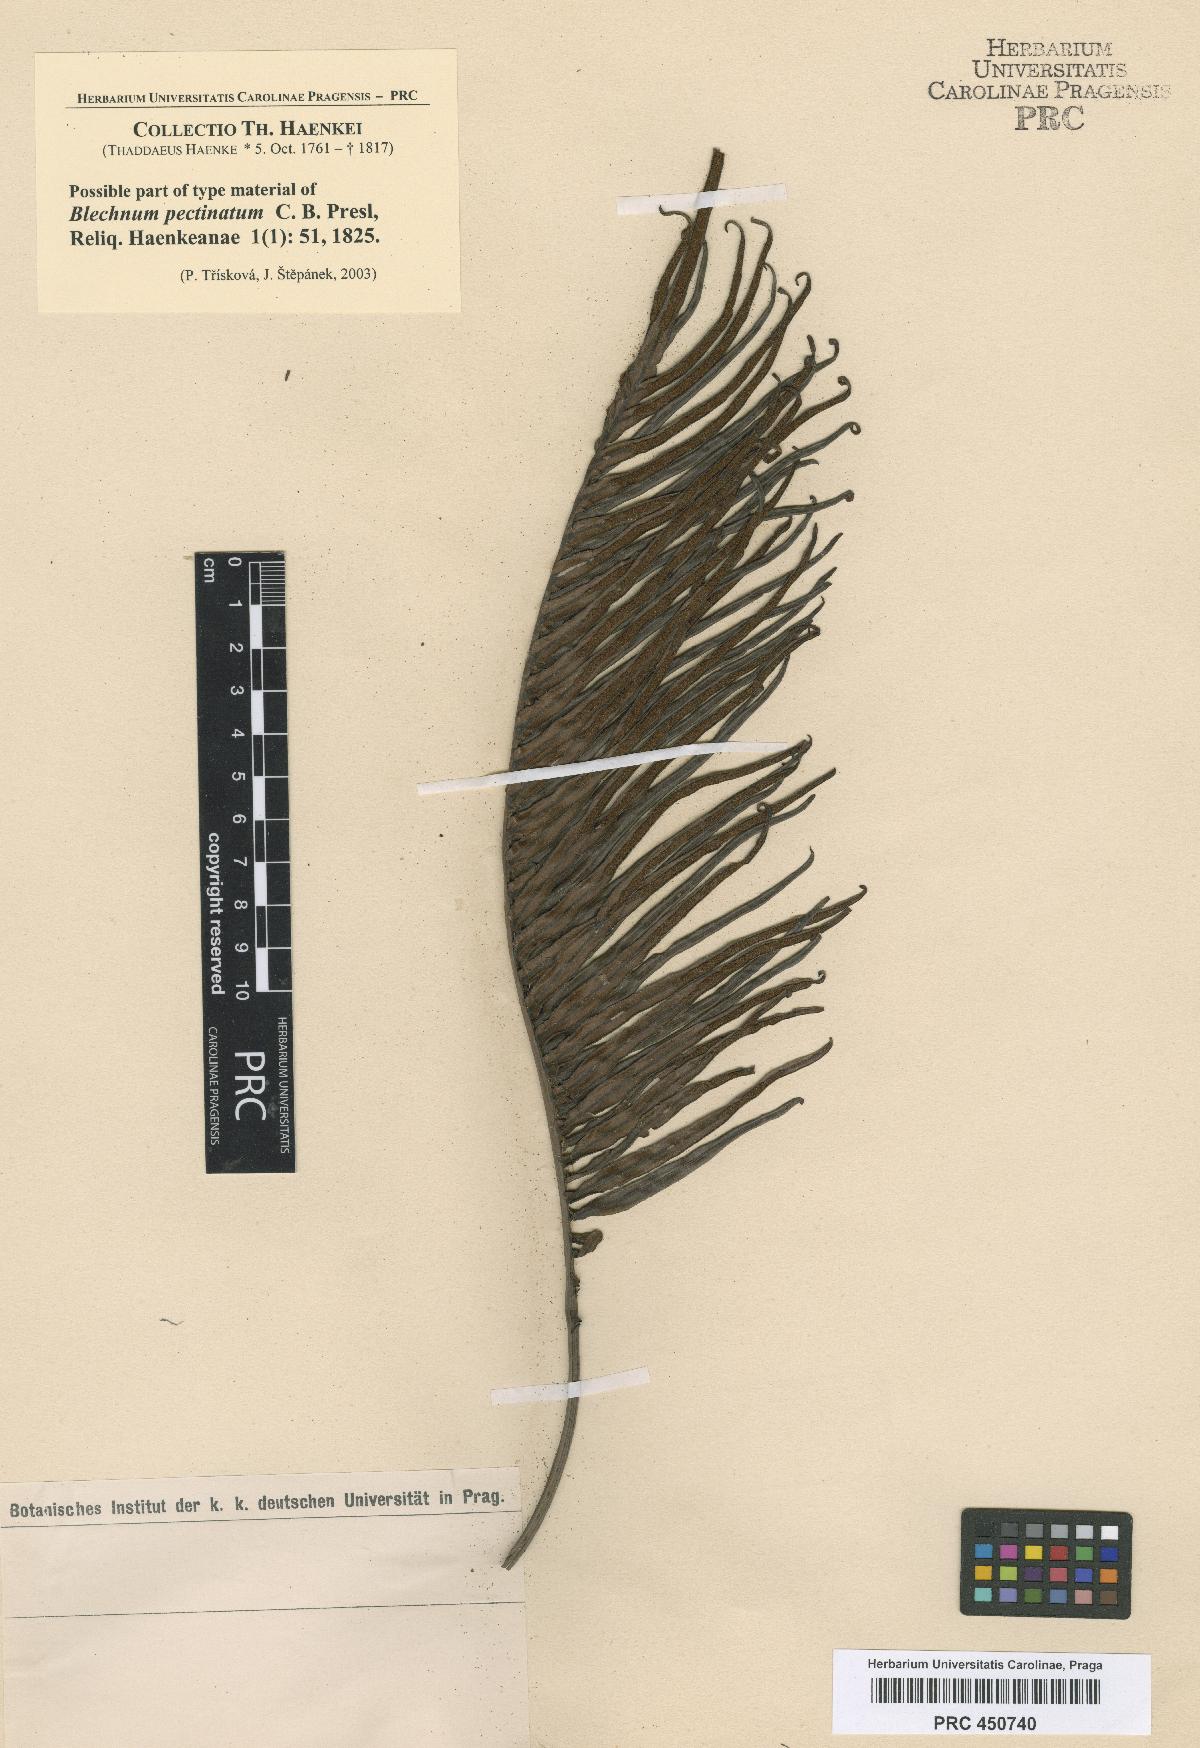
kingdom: Plantae
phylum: Tracheophyta
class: Polypodiopsida
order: Polypodiales
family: Blechnaceae
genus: Blechnopsis
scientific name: Blechnopsis orientalis
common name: Oriental blechnum
